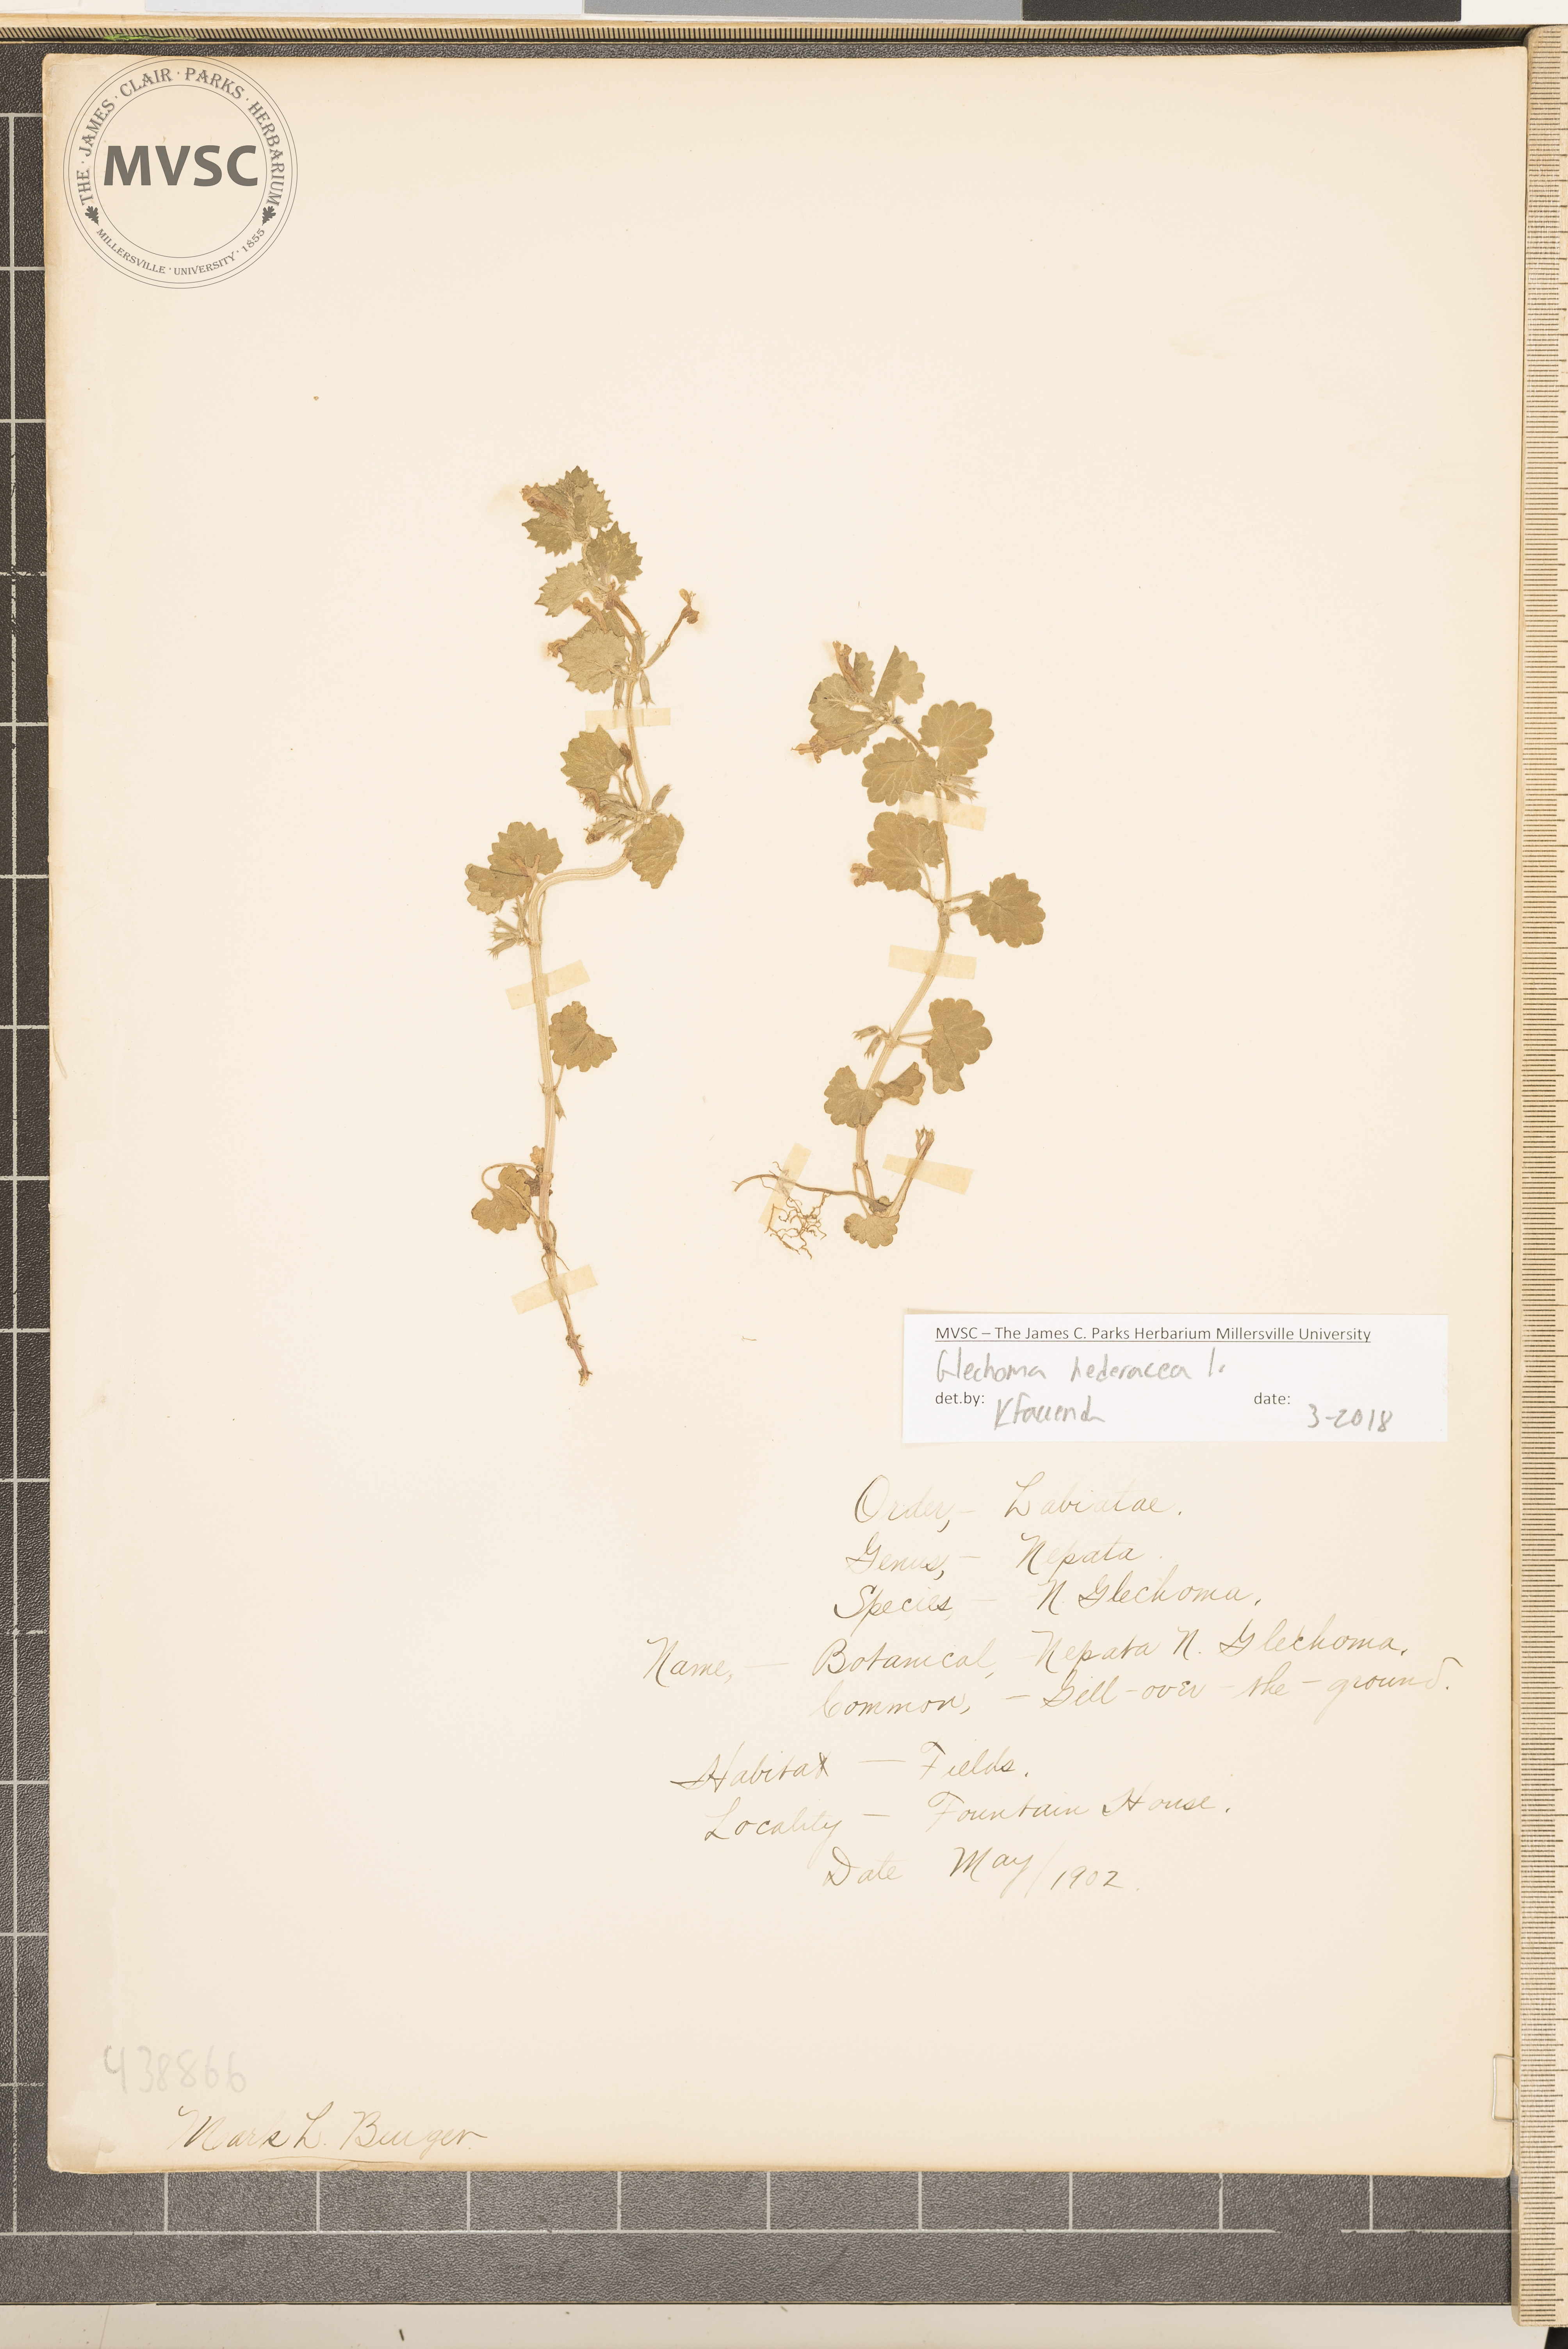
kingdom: Plantae
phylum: Tracheophyta
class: Magnoliopsida
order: Lamiales
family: Lamiaceae
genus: Glechoma
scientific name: Glechoma hederacea
